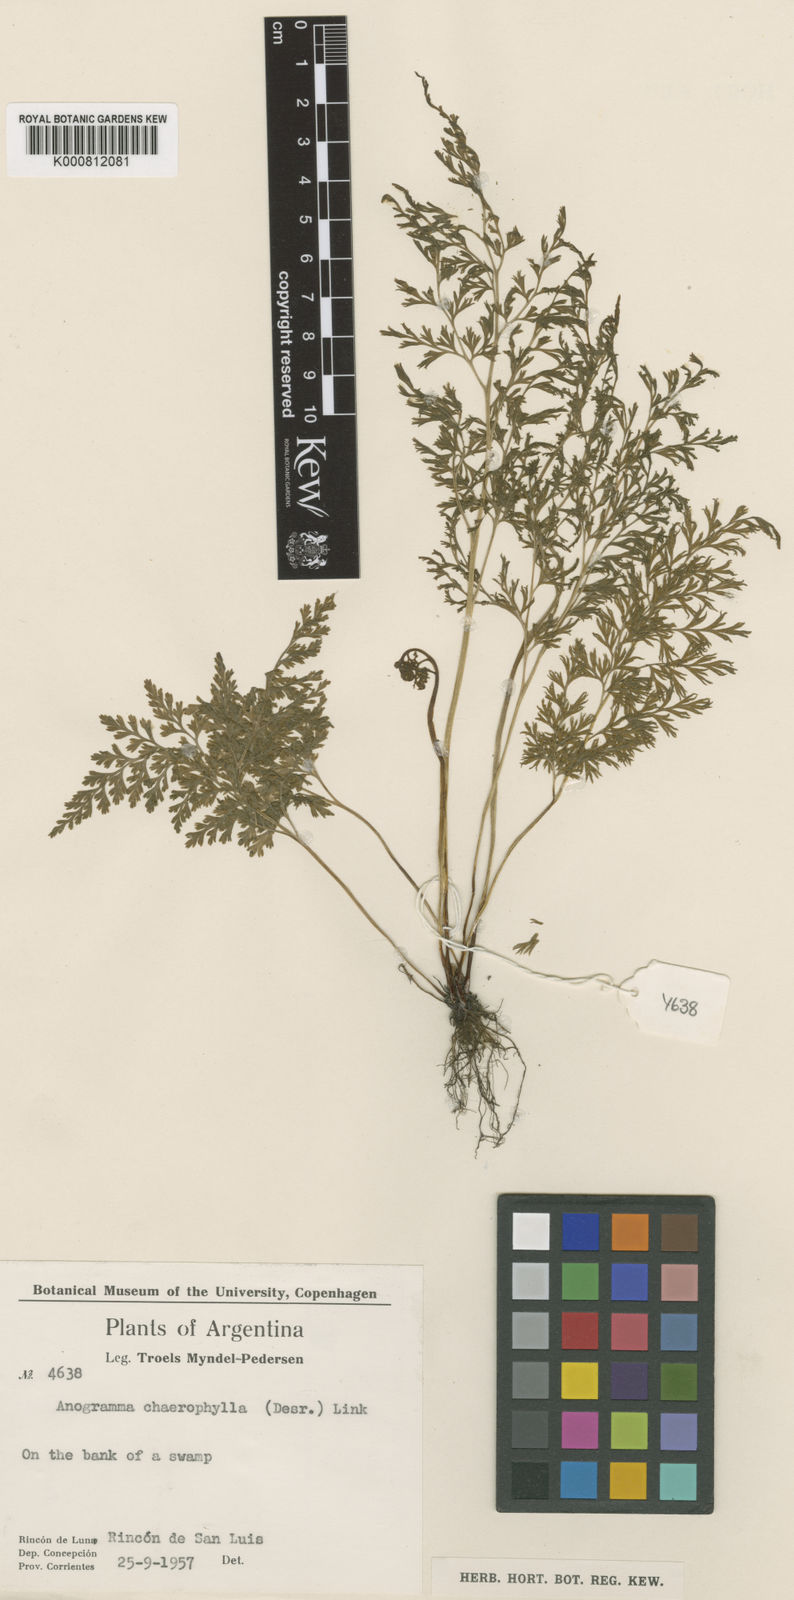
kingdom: Plantae
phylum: Tracheophyta
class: Polypodiopsida
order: Polypodiales
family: Pteridaceae
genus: Gastoniella
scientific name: Gastoniella chaerophylla
